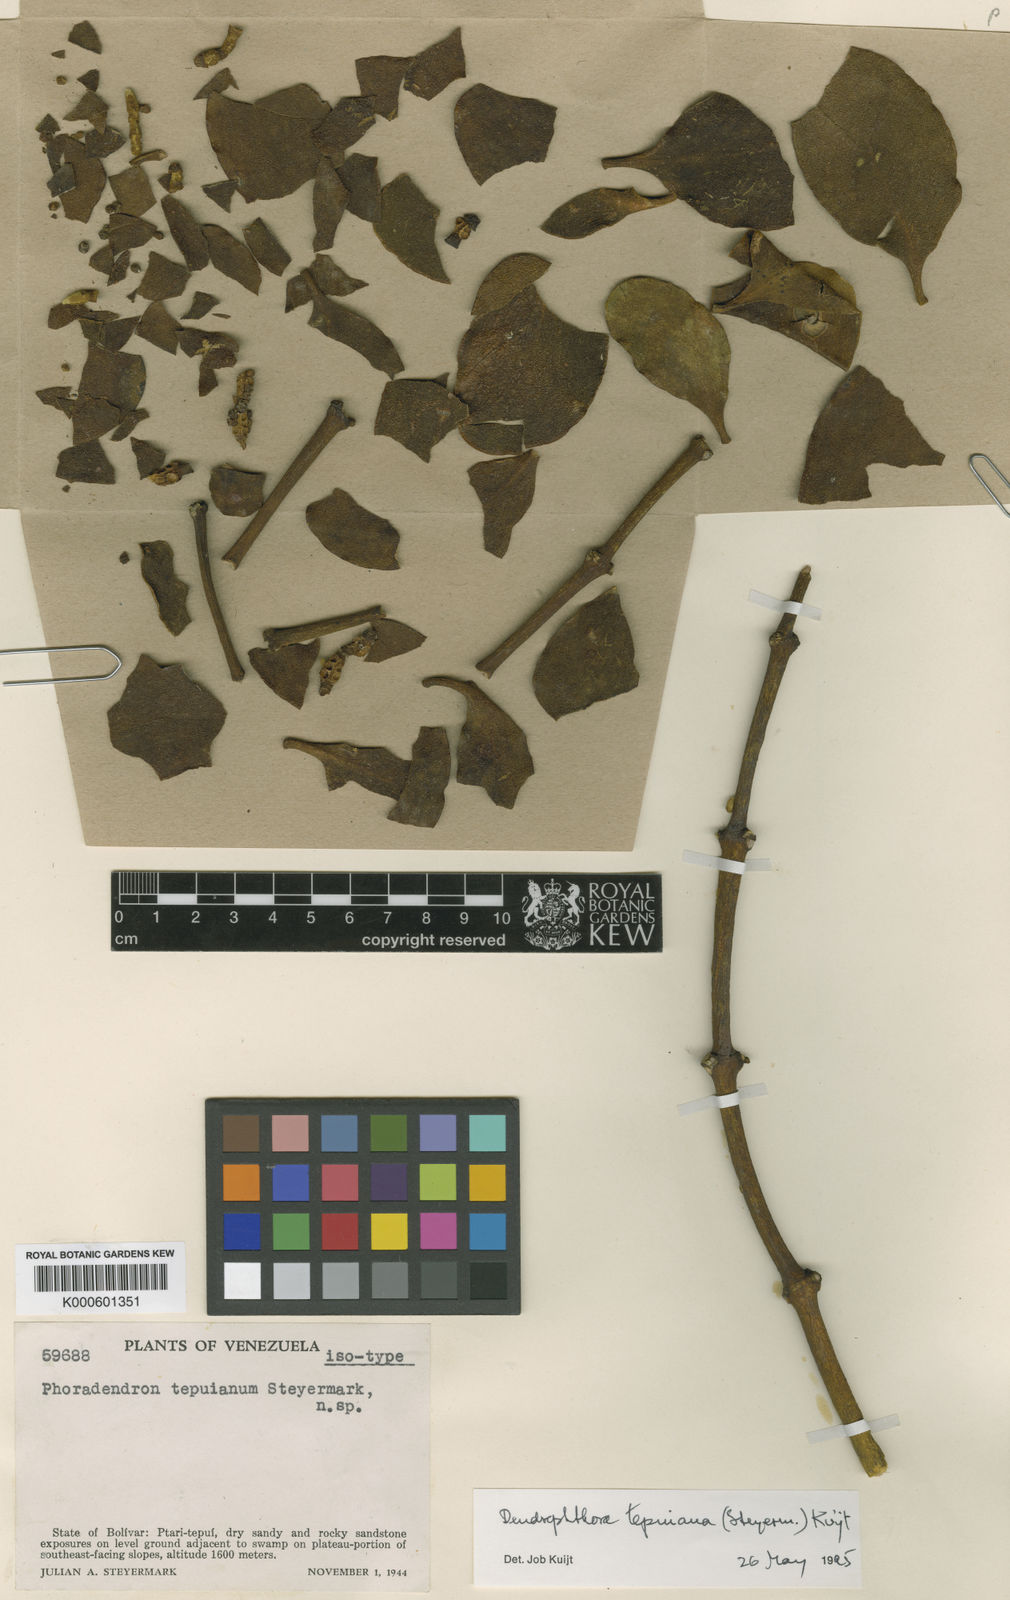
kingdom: Plantae
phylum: Tracheophyta
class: Magnoliopsida
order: Santalales
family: Viscaceae
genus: Dendrophthora
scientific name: Dendrophthora warmingii
